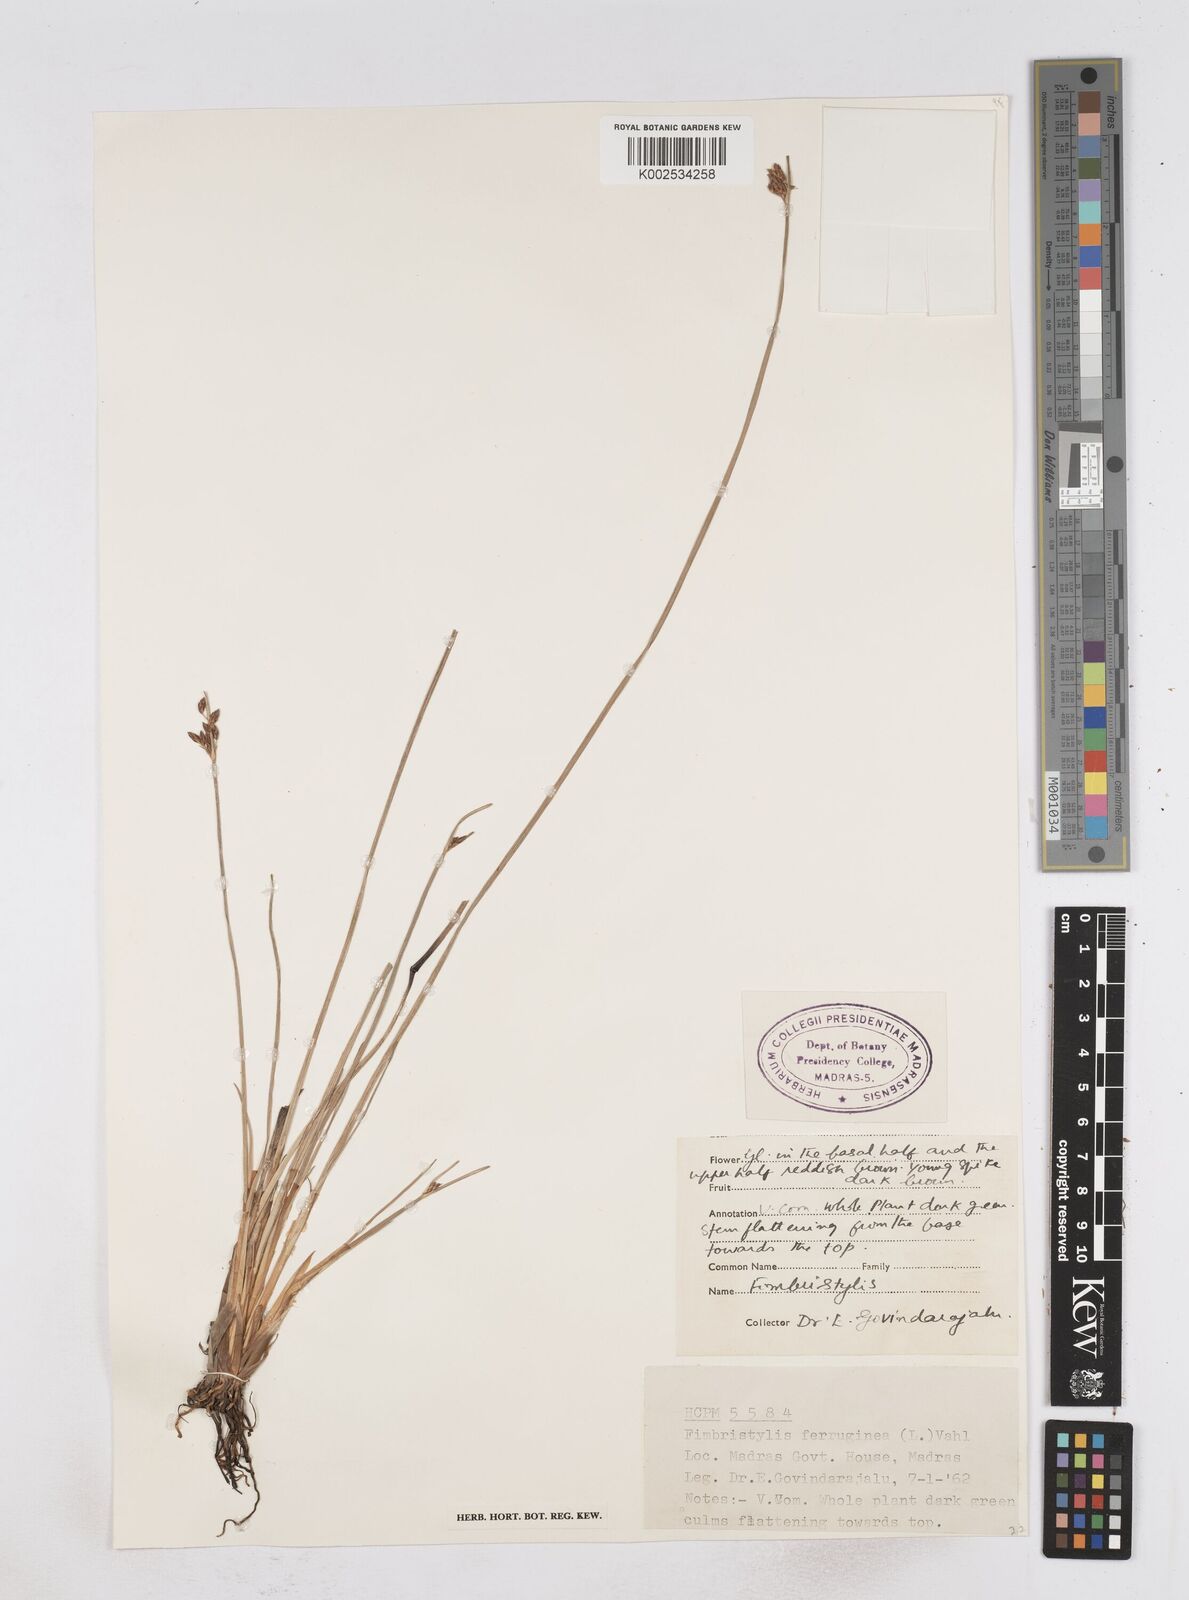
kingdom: Plantae
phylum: Tracheophyta
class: Liliopsida
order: Poales
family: Cyperaceae
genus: Fimbristylis
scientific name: Fimbristylis ferruginea
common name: West indian fimbry
